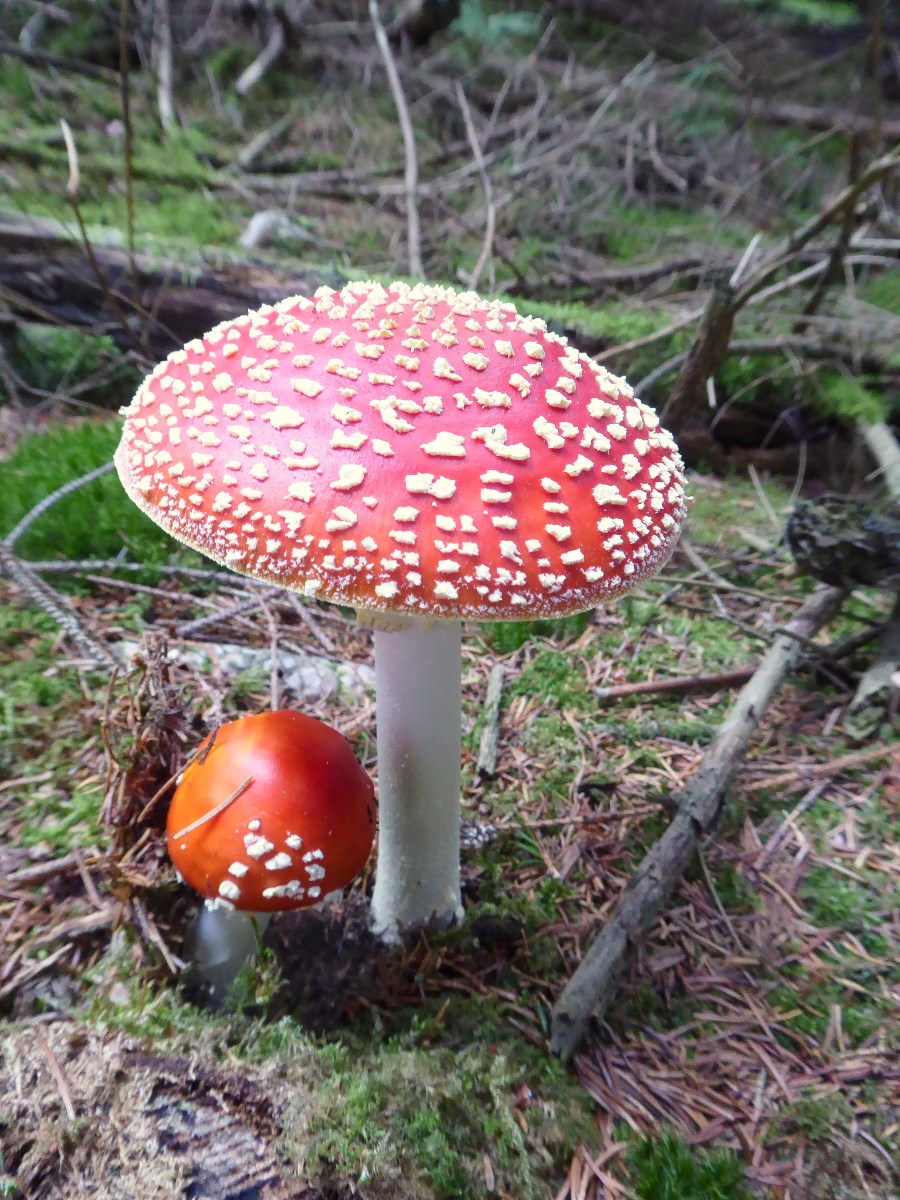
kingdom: Fungi
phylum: Basidiomycota
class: Agaricomycetes
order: Agaricales
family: Amanitaceae
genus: Amanita
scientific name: Amanita muscaria
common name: rød fluesvamp
